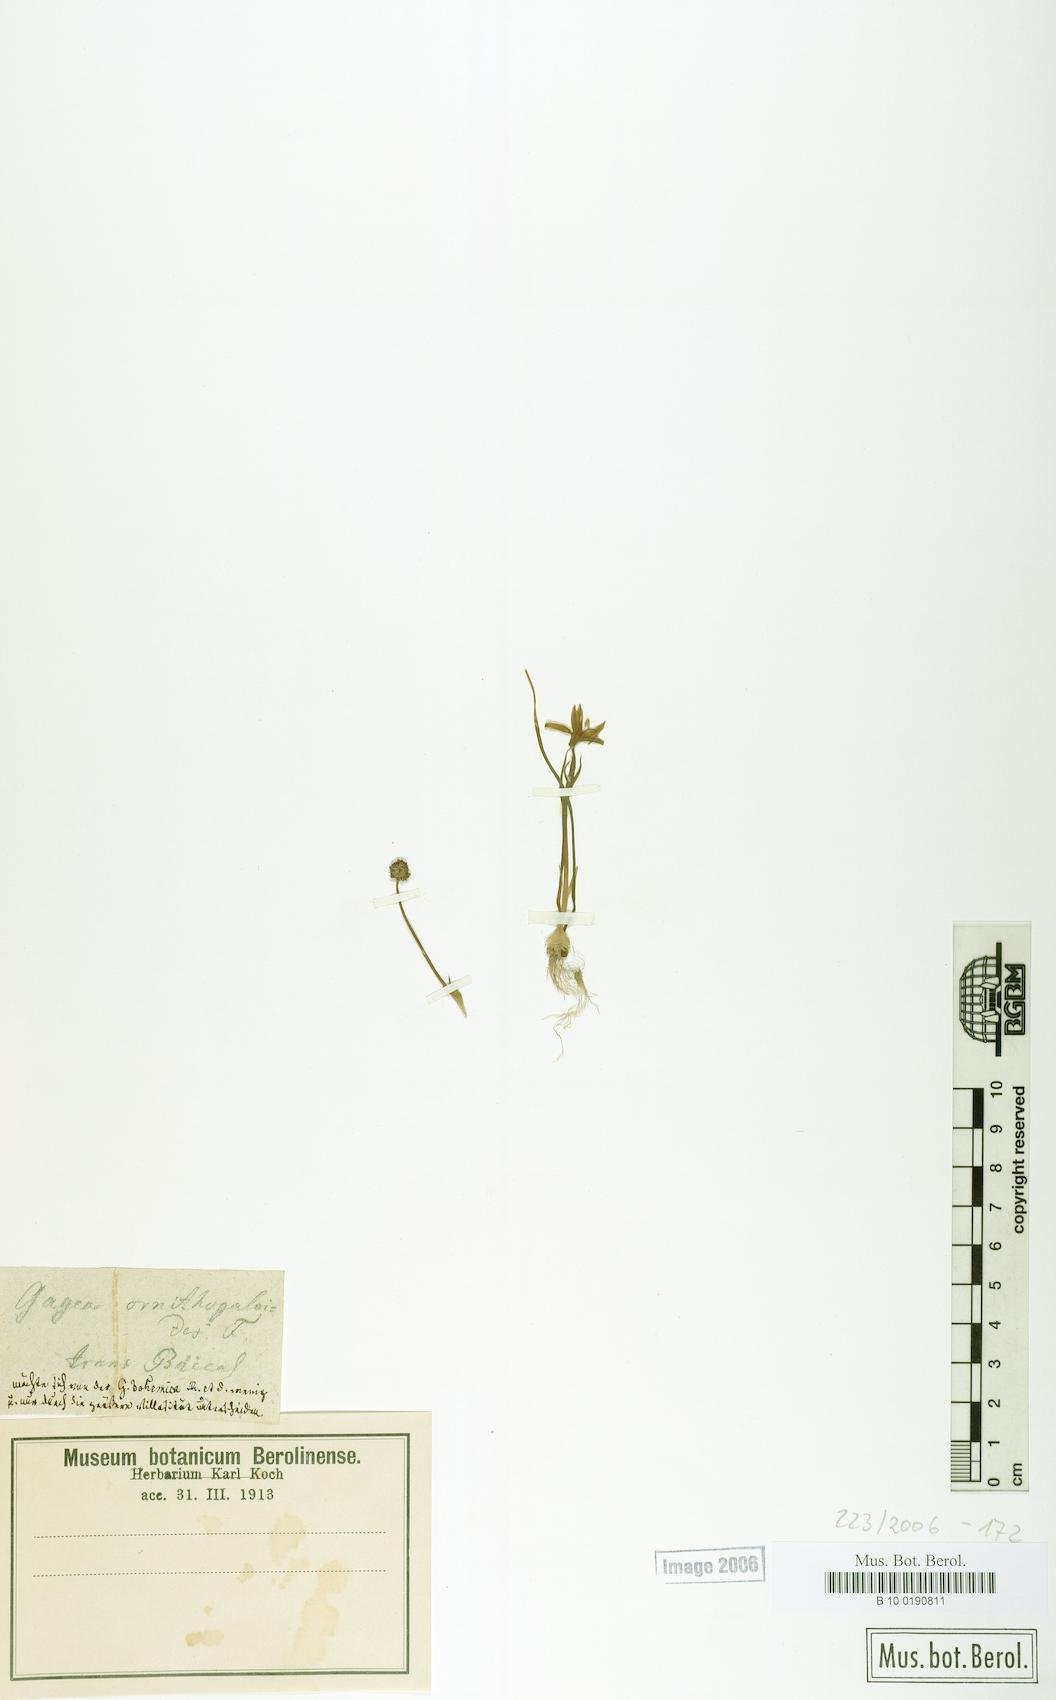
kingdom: Plantae
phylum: Tracheophyta
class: Liliopsida
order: Liliales
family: Liliaceae
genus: Gagea
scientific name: Gagea
